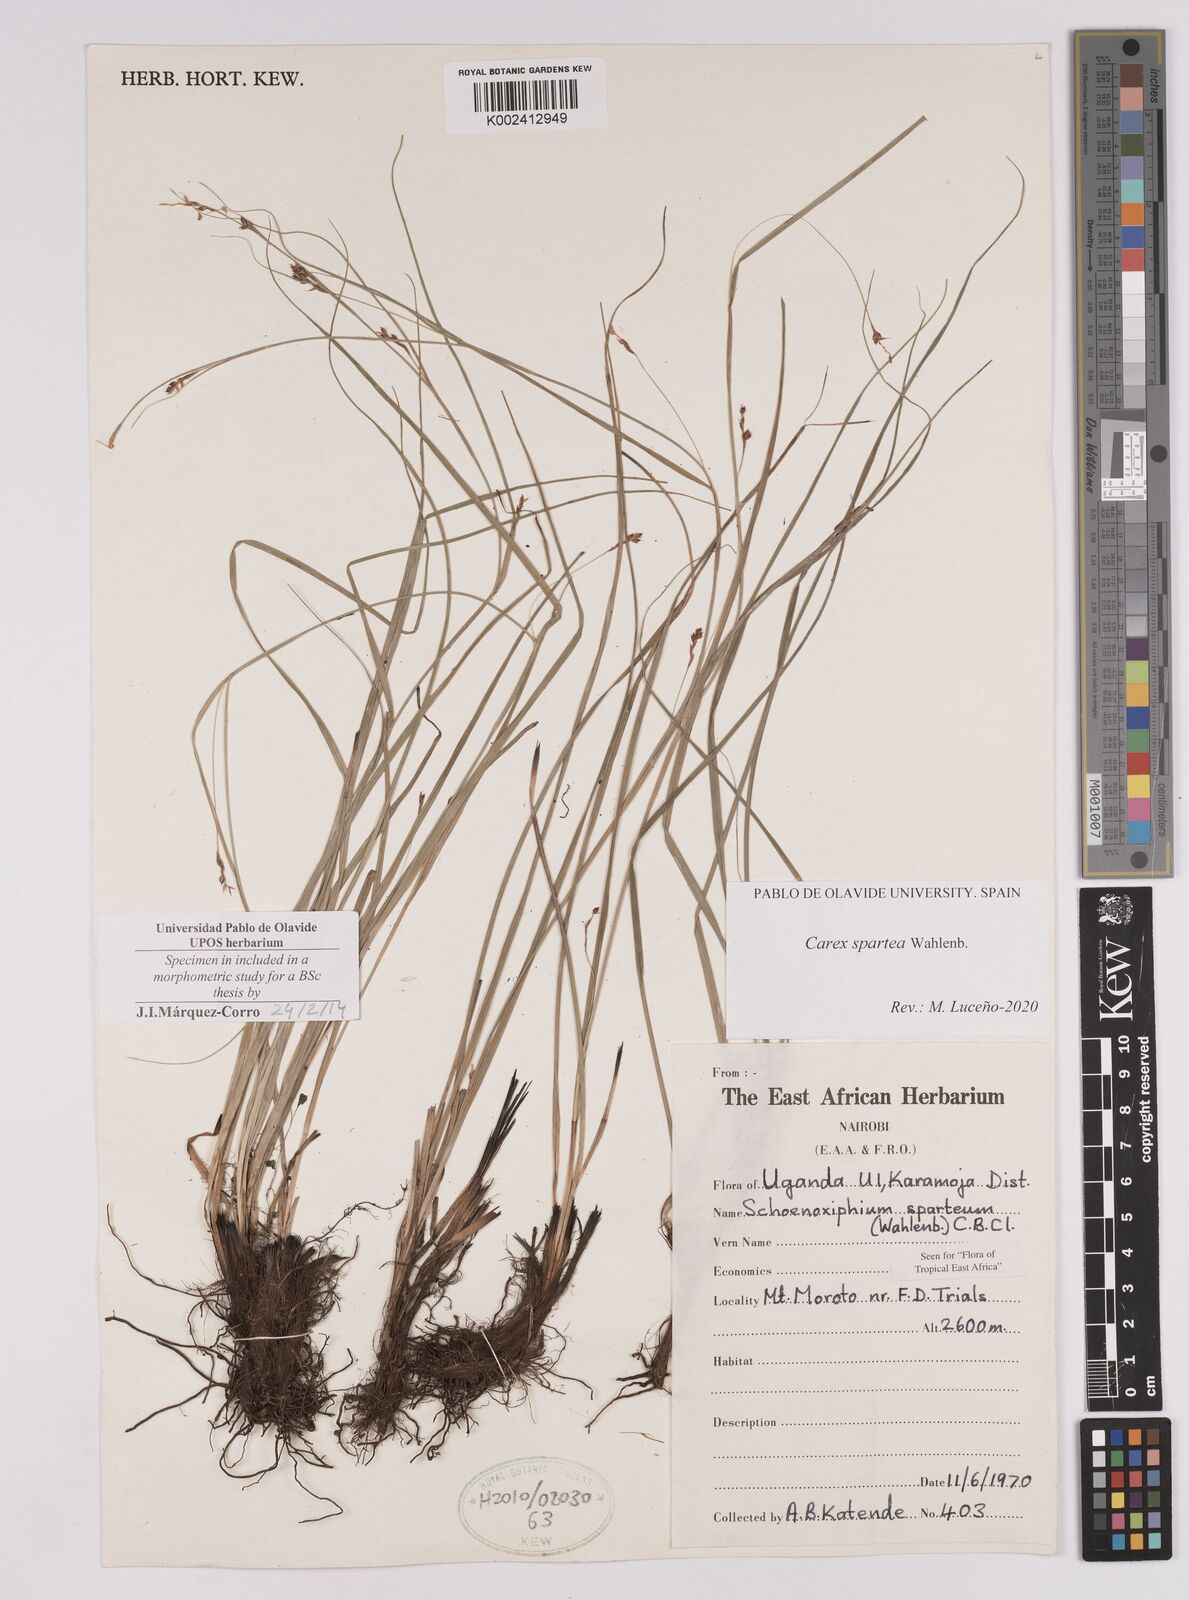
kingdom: Plantae
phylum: Tracheophyta
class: Liliopsida
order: Poales
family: Cyperaceae
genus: Carex
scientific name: Carex schimperiana
